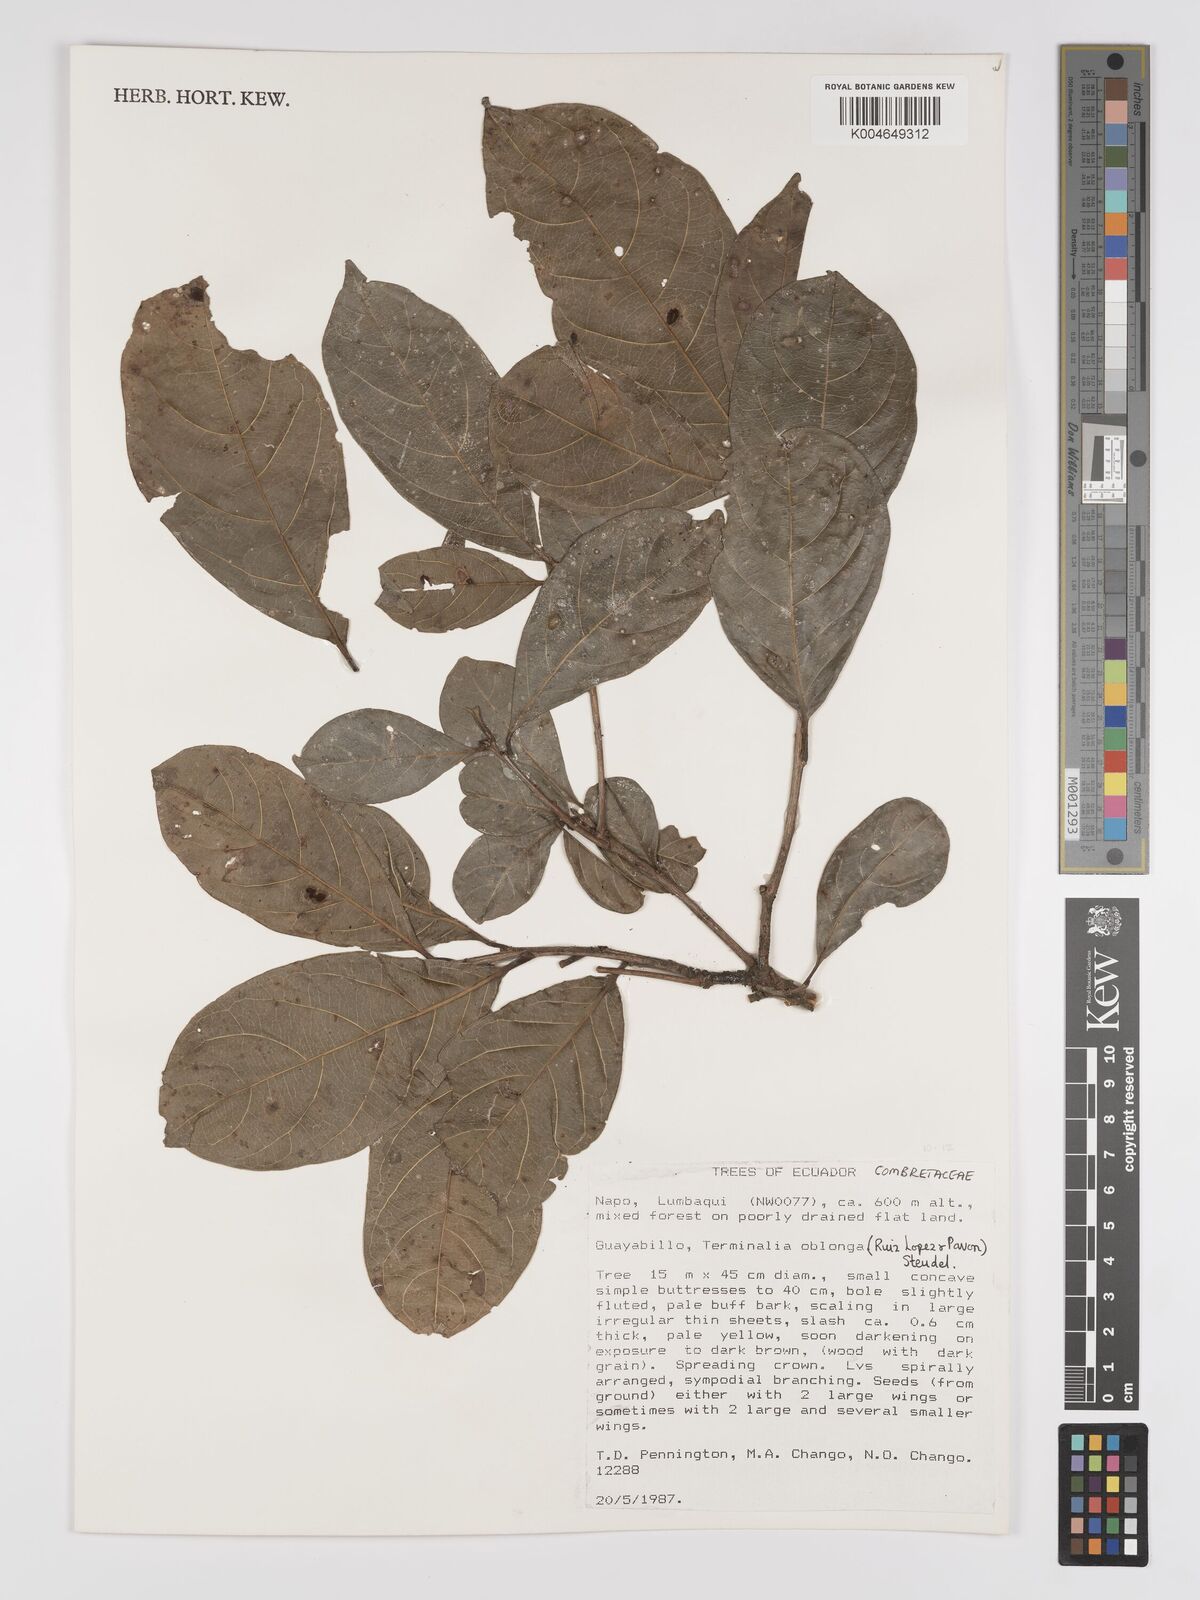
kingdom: Plantae
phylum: Tracheophyta
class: Magnoliopsida
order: Myrtales
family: Combretaceae
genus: Terminalia
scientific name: Terminalia oblonga
